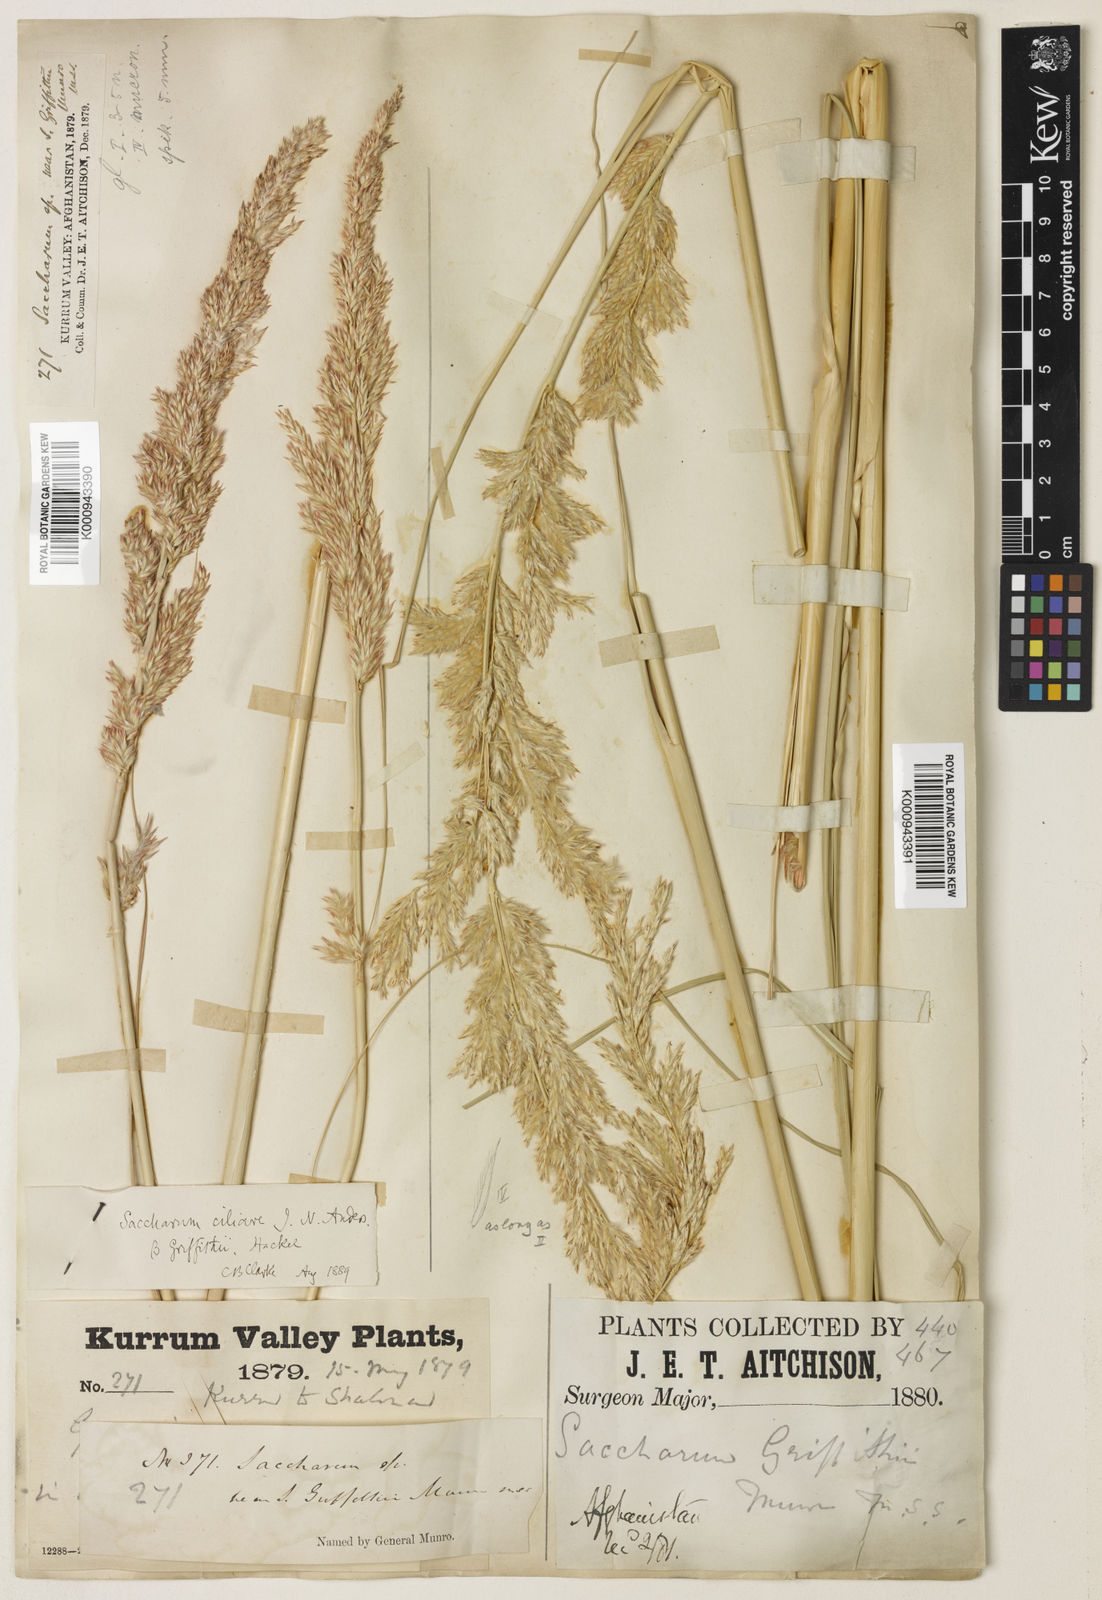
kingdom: Plantae
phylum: Tracheophyta
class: Liliopsida
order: Poales
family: Poaceae
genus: Saccharum
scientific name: Saccharum griffithii
